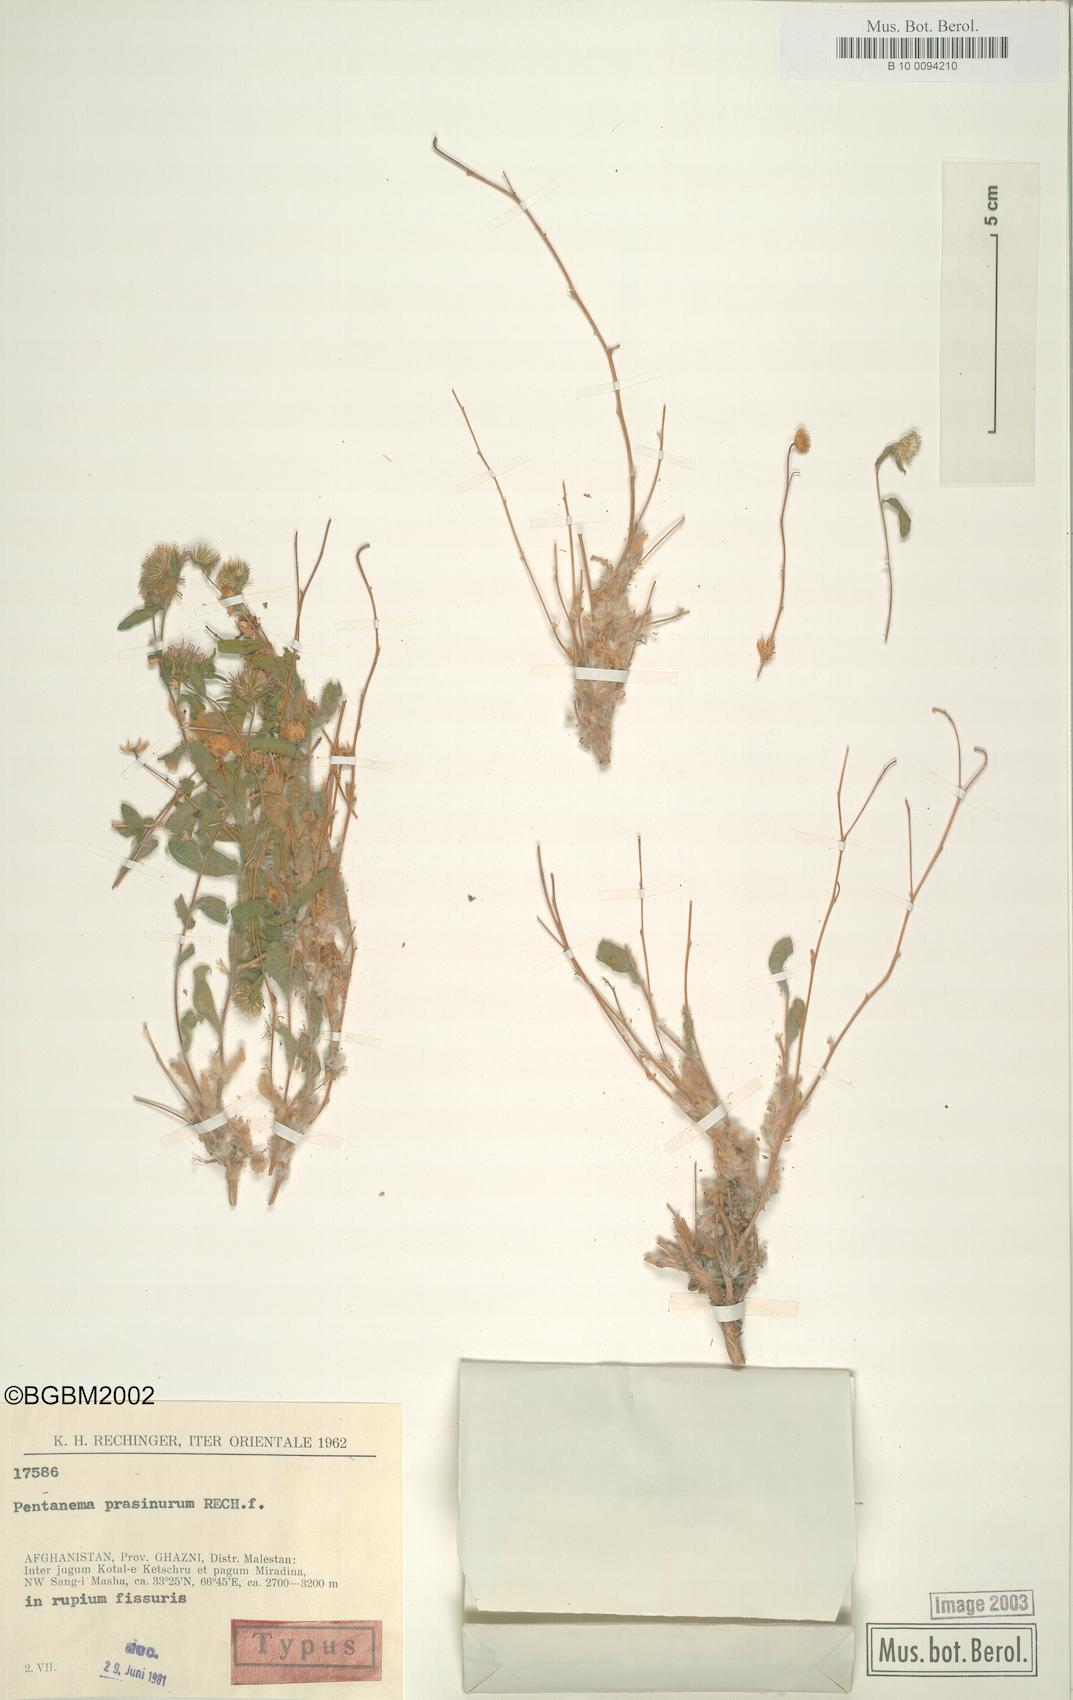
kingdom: Plantae
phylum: Tracheophyta
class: Magnoliopsida
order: Asterales
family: Asteraceae
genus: Pentanema
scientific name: Pentanema prasinurum
